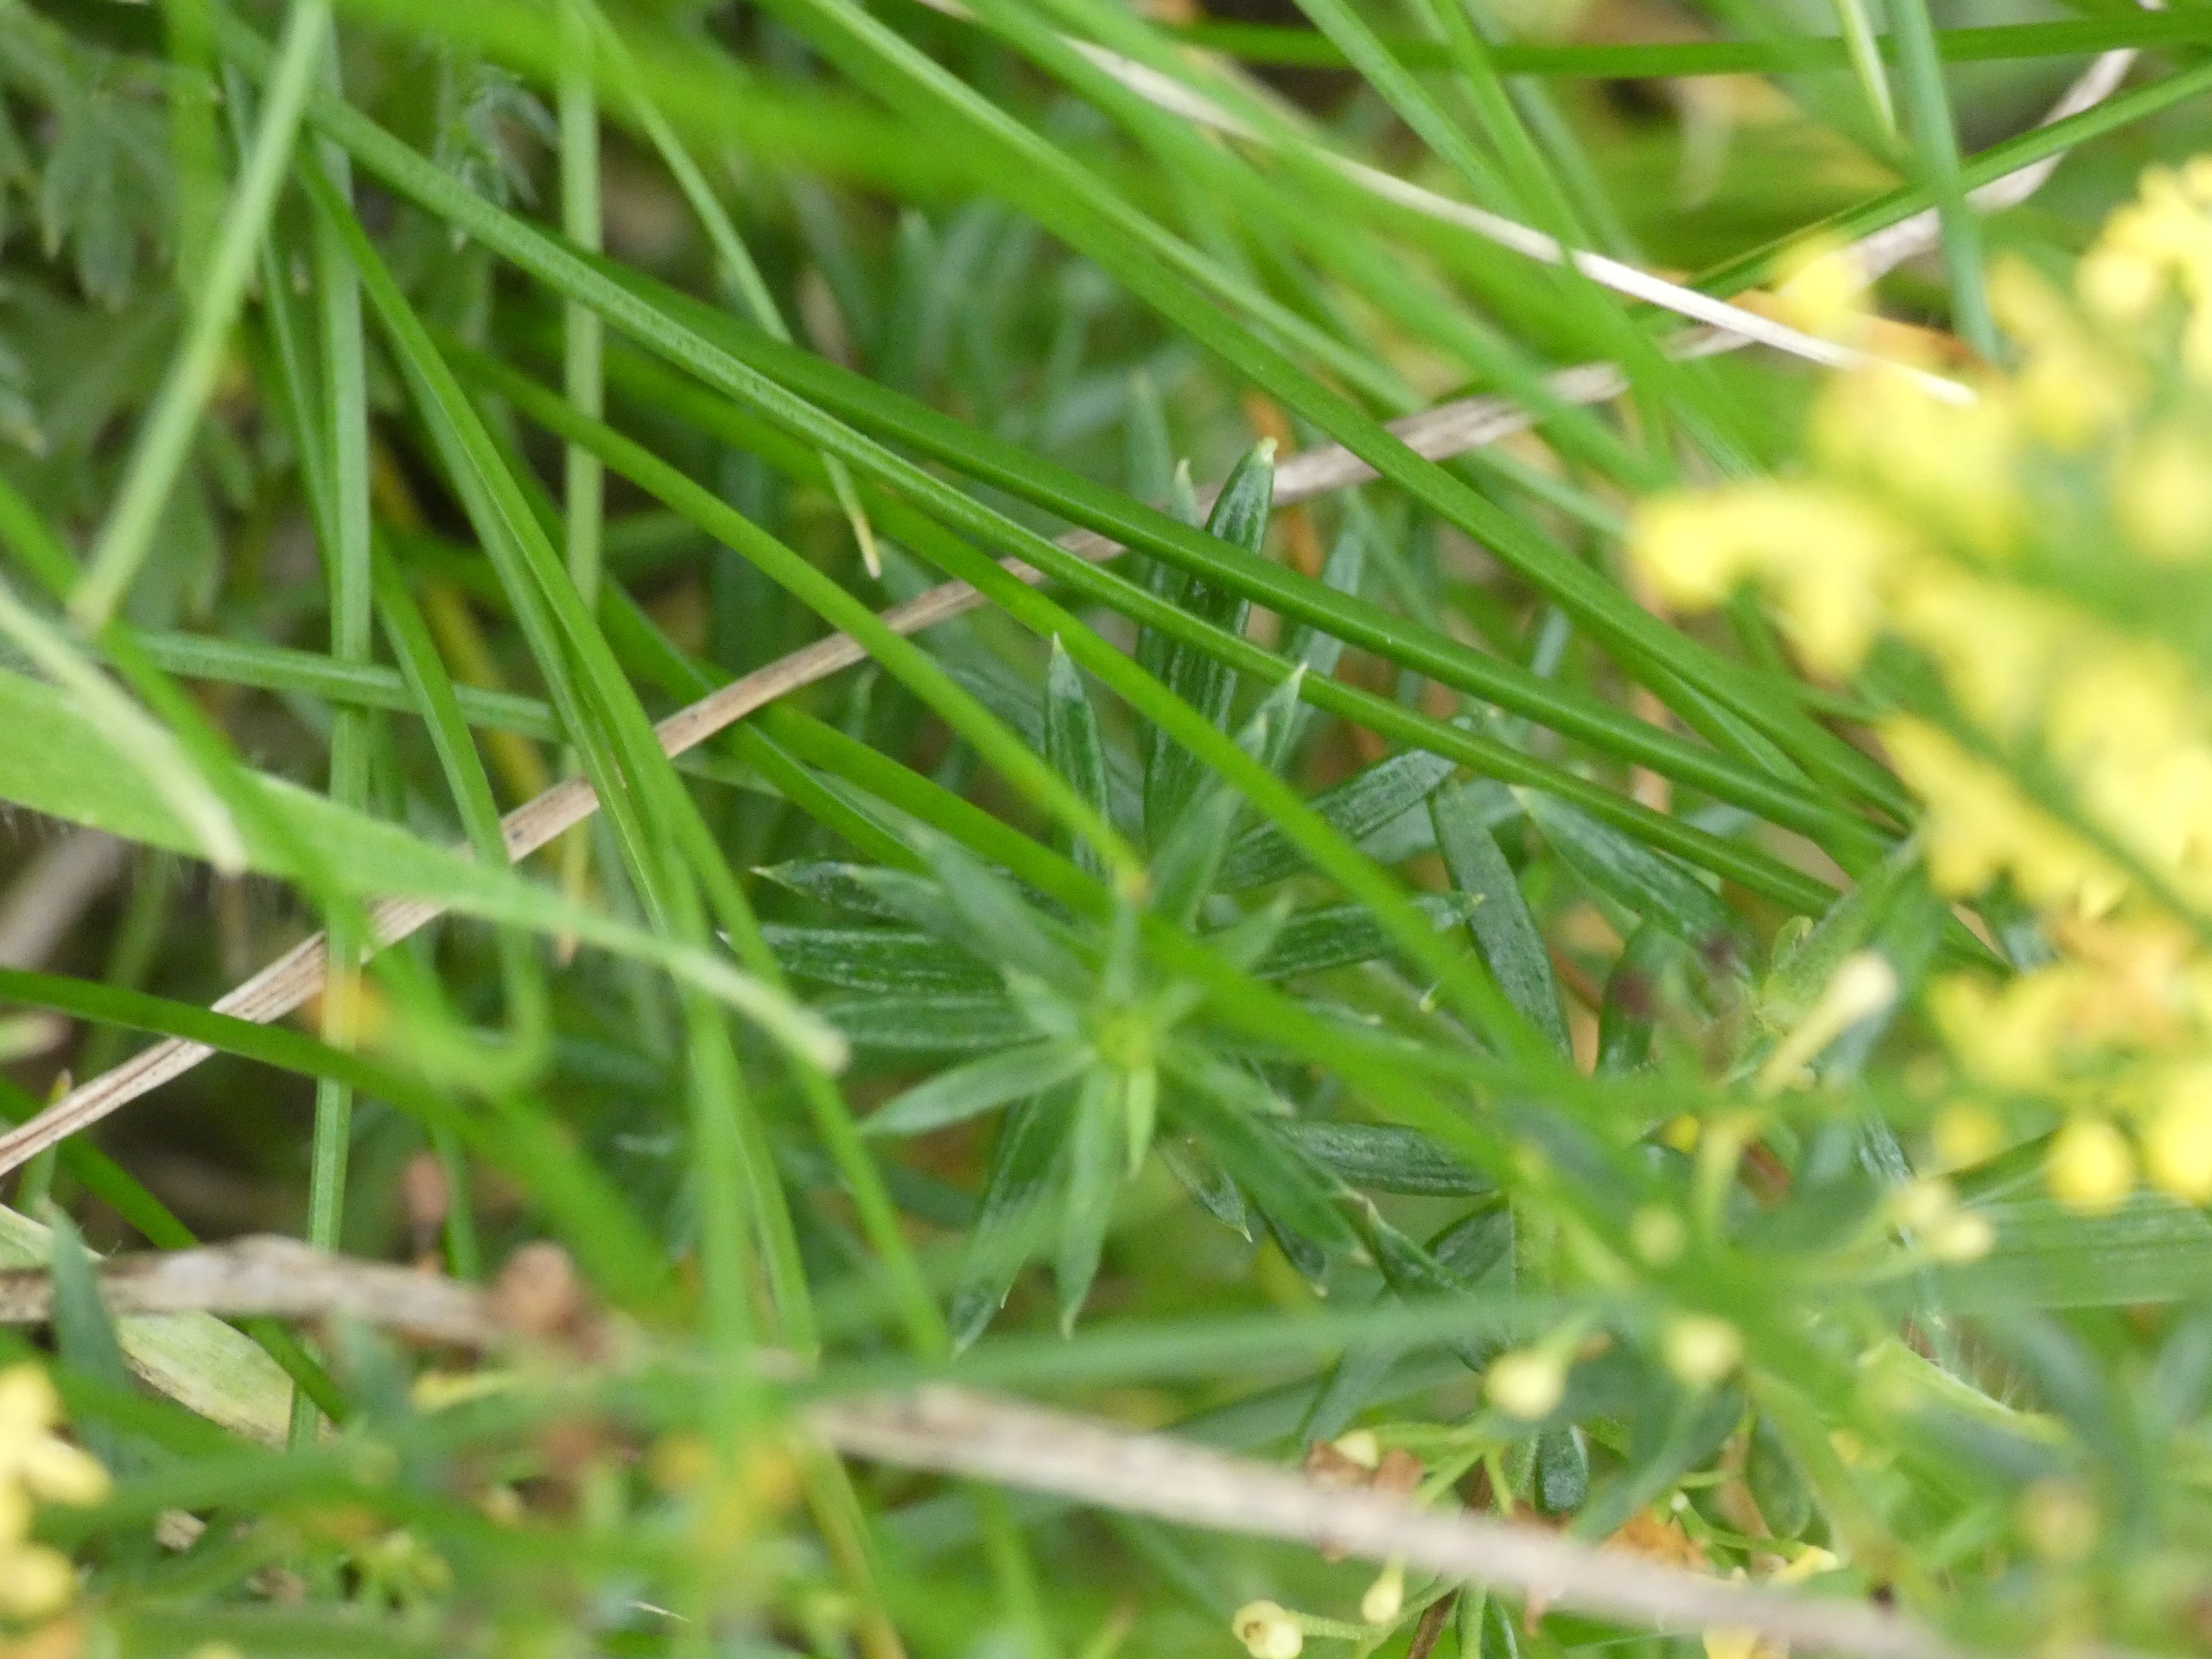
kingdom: Plantae
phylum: Tracheophyta
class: Magnoliopsida
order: Gentianales
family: Rubiaceae
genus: Galium
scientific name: Galium verum
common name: Gul snerre
